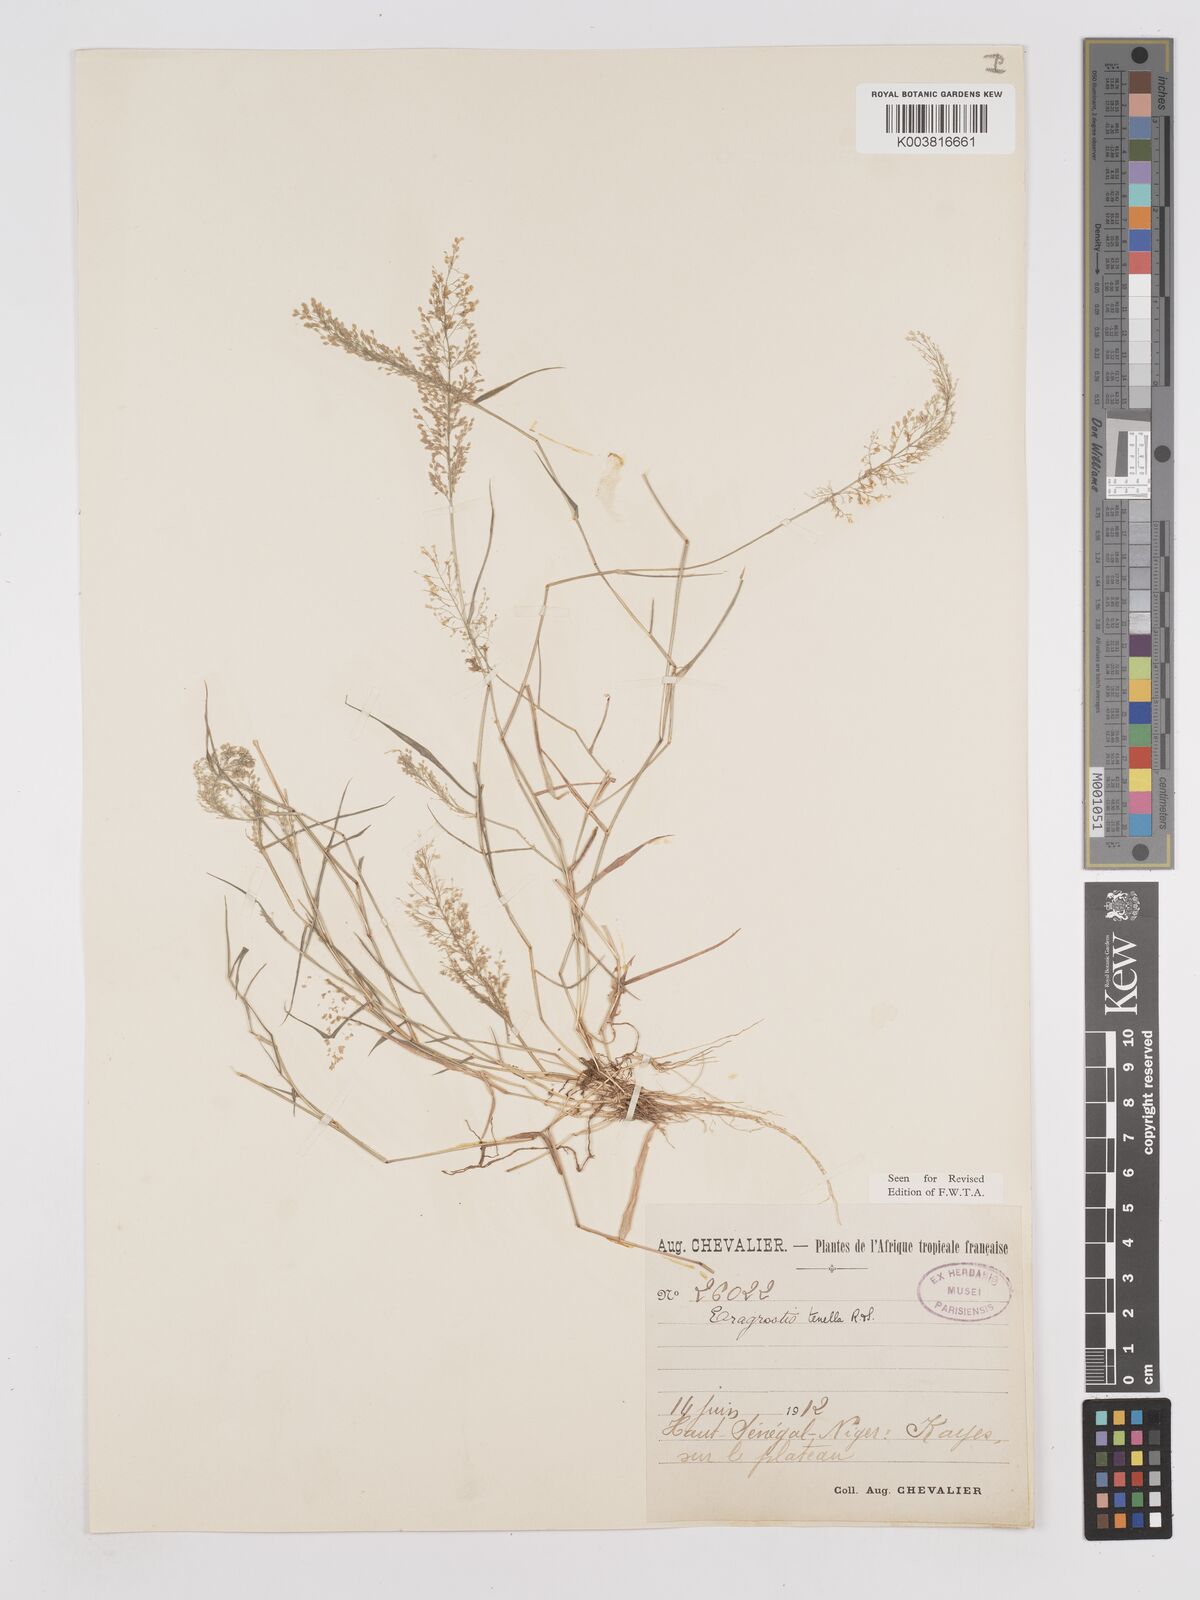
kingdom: Plantae
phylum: Tracheophyta
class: Liliopsida
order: Poales
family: Poaceae
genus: Eragrostis
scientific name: Eragrostis tenella
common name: Japanese lovegrass
